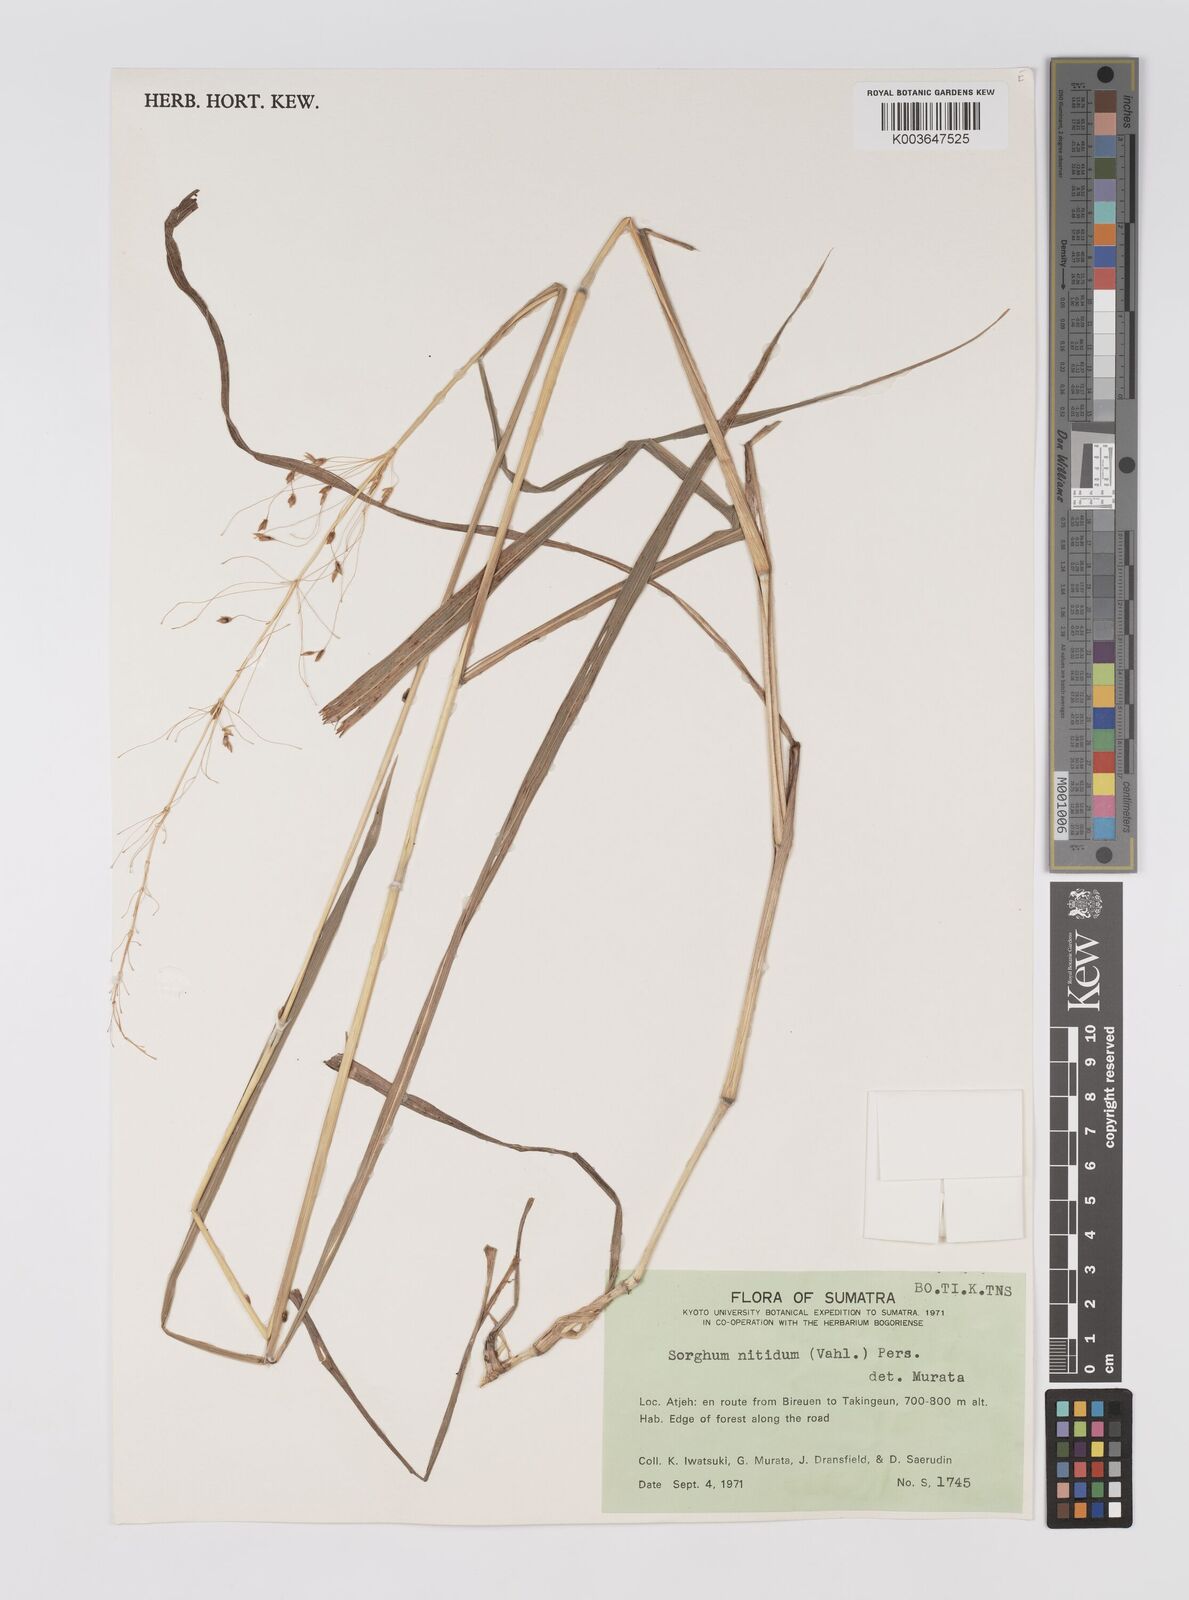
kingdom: Plantae
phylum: Tracheophyta
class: Liliopsida
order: Poales
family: Poaceae
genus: Sorghum
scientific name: Sorghum nitidum
